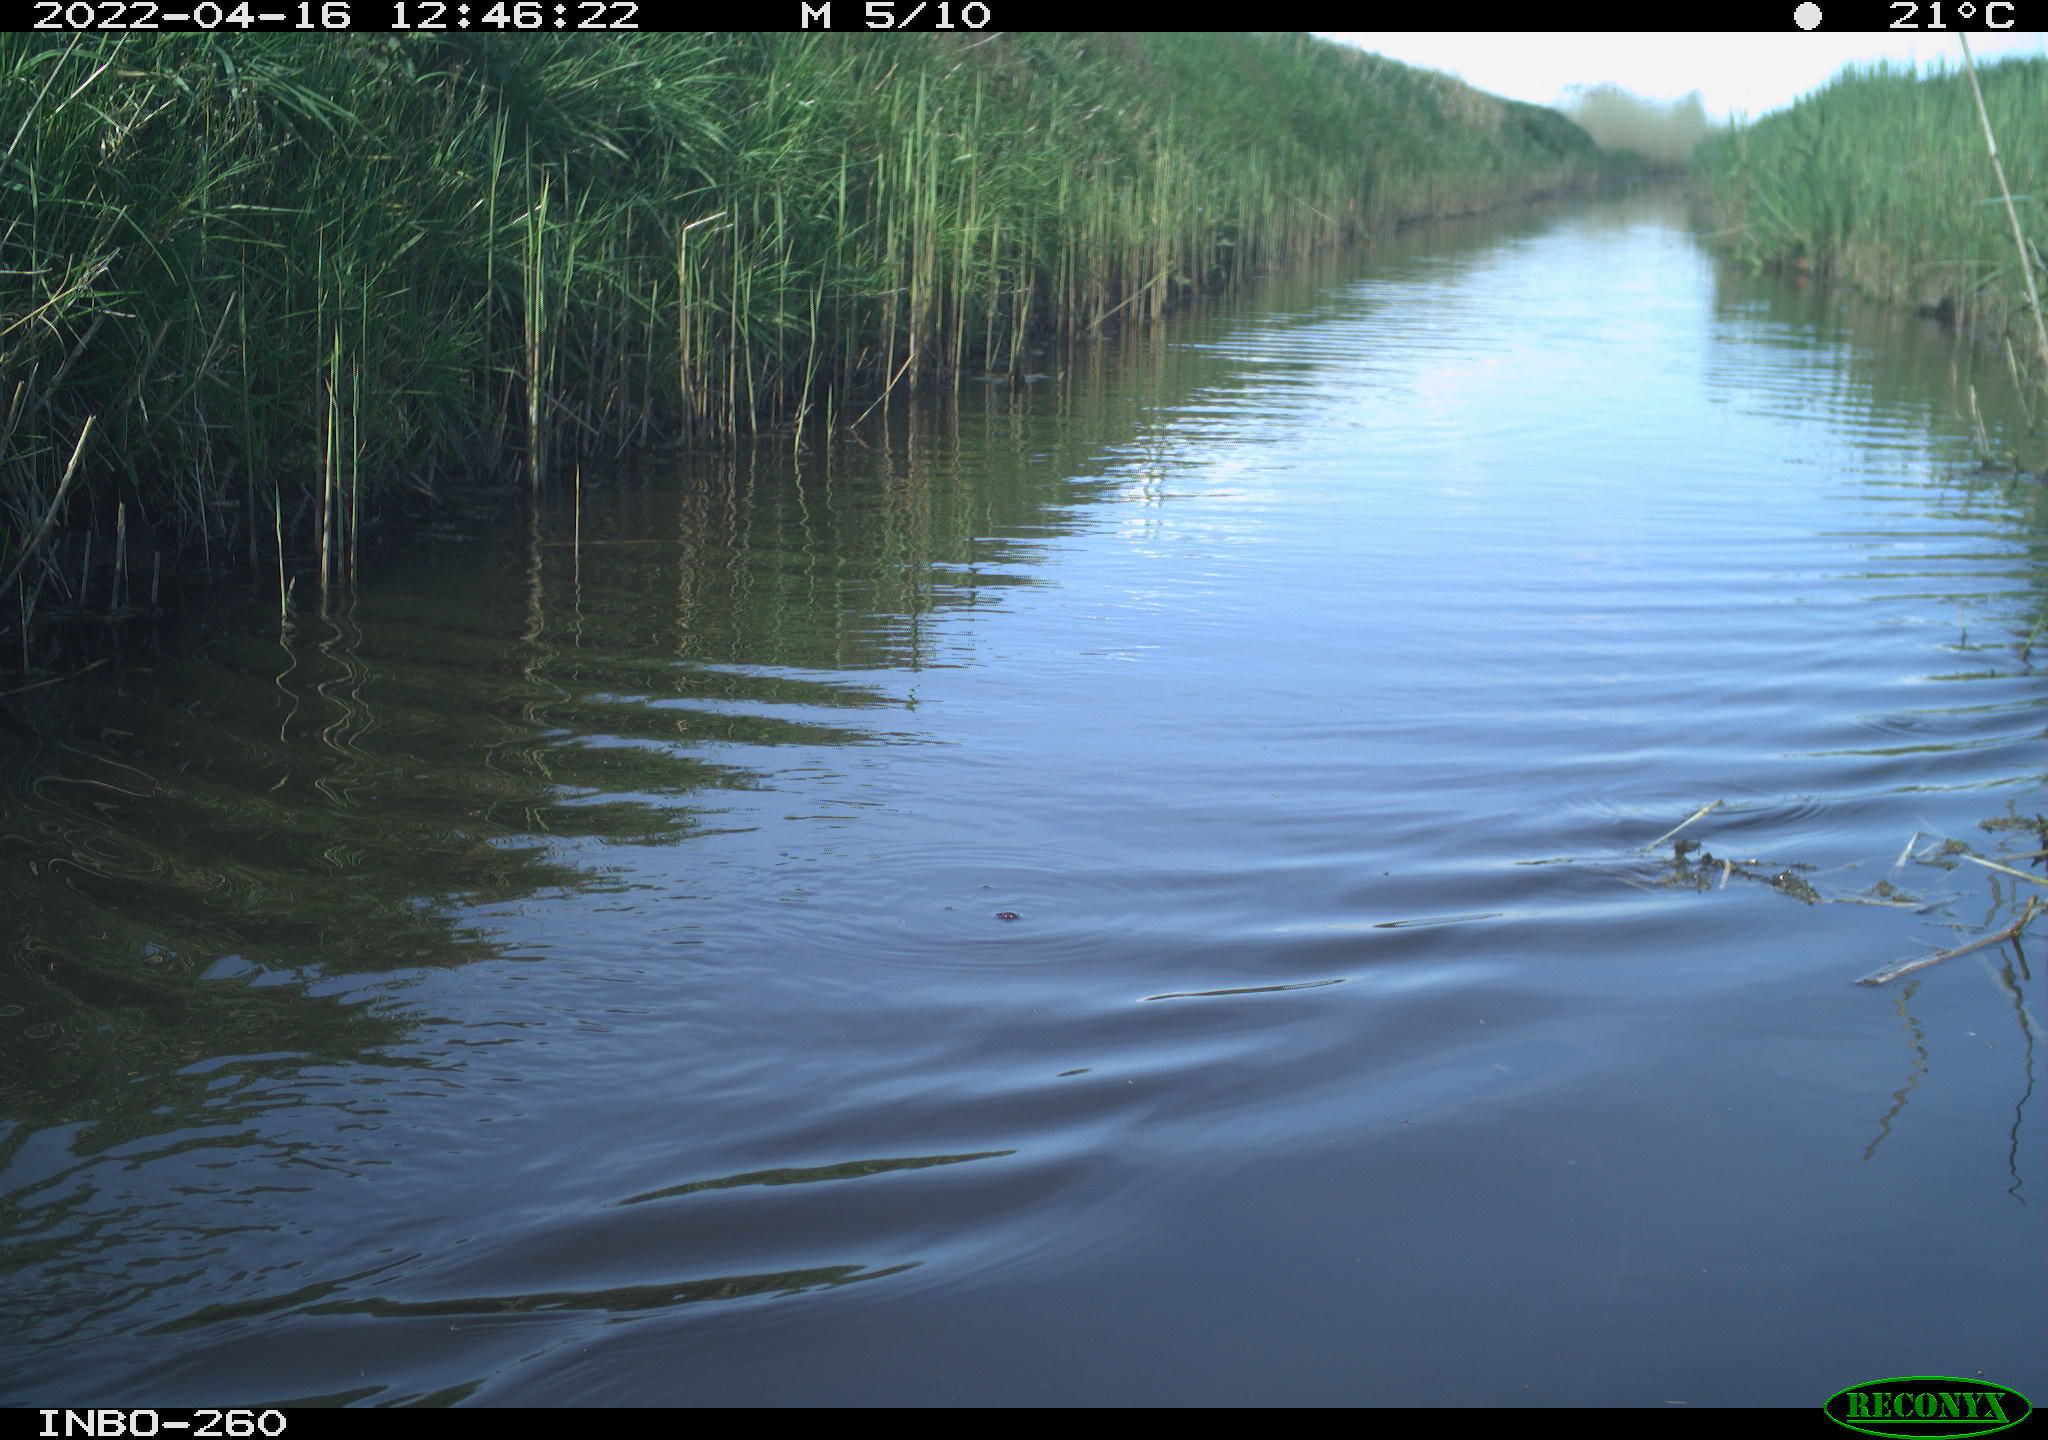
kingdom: Animalia
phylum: Chordata
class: Aves
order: Gruiformes
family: Rallidae
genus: Fulica
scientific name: Fulica atra
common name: Eurasian coot
